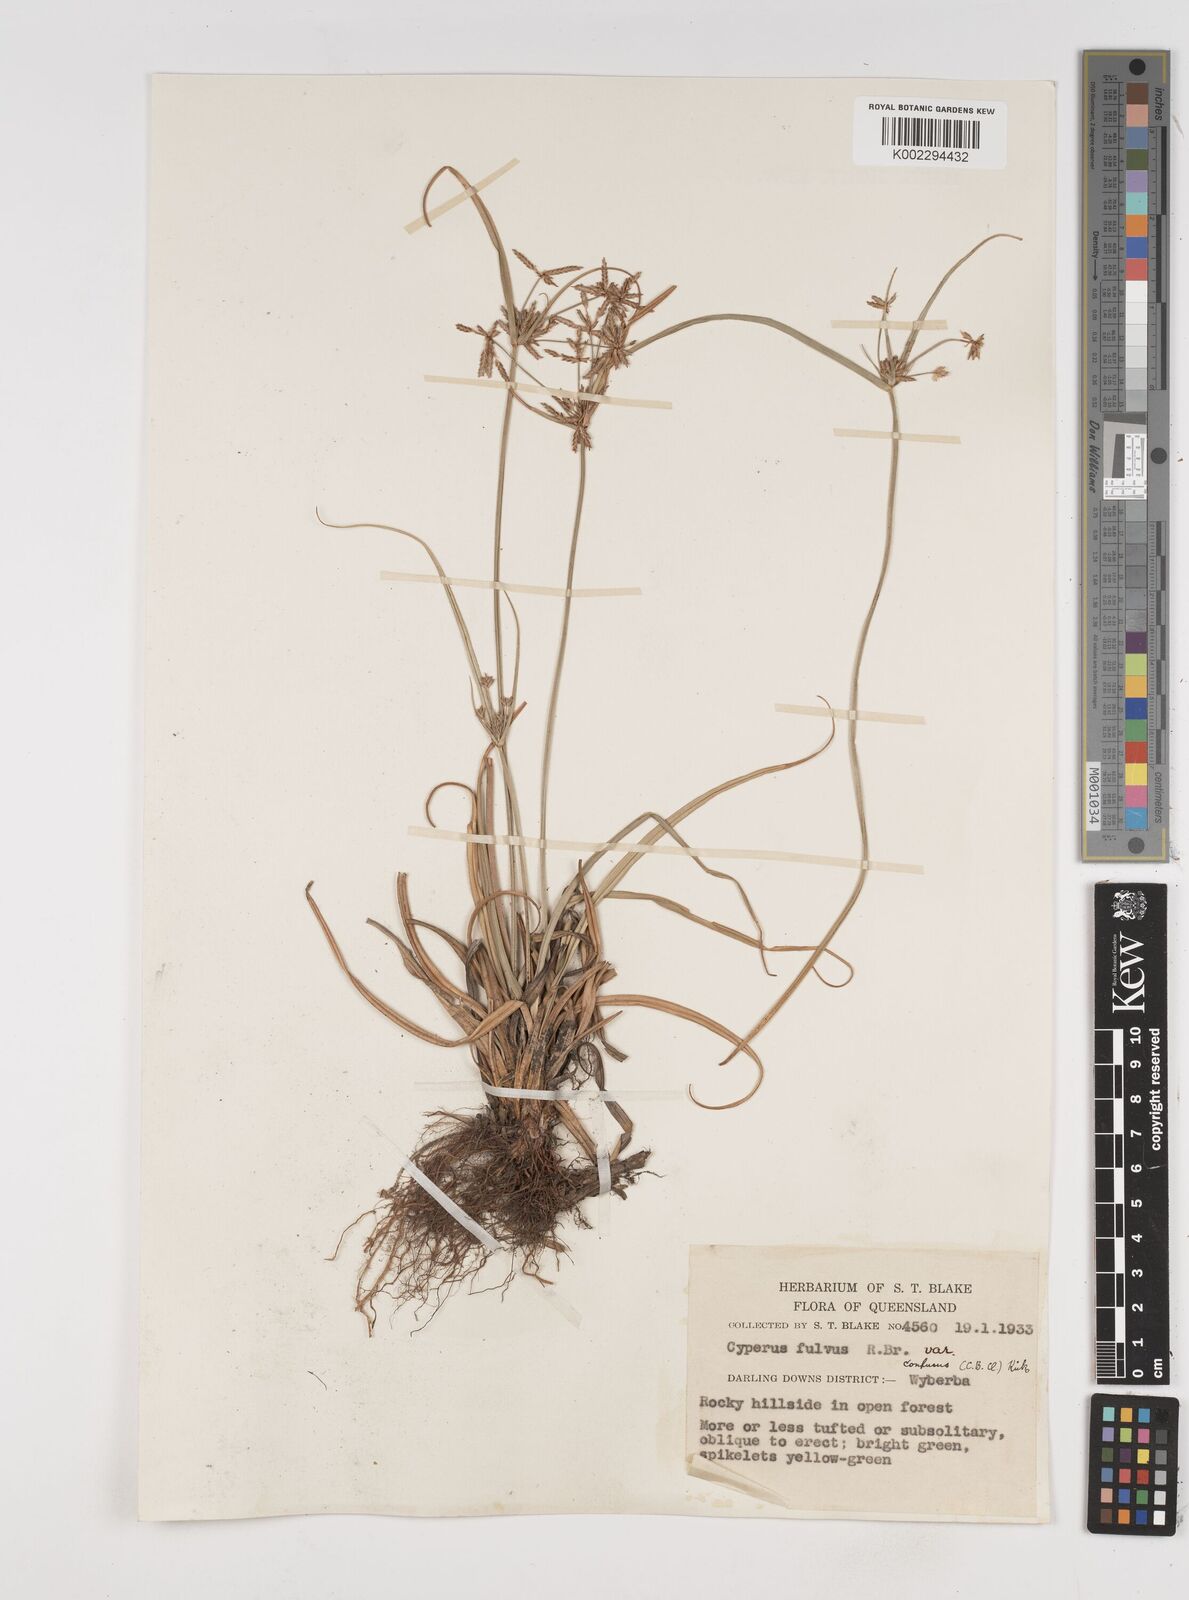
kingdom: Plantae
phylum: Tracheophyta
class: Liliopsida
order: Poales
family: Cyperaceae
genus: Cyperus
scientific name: Cyperus fulvus
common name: Sticky sedge
